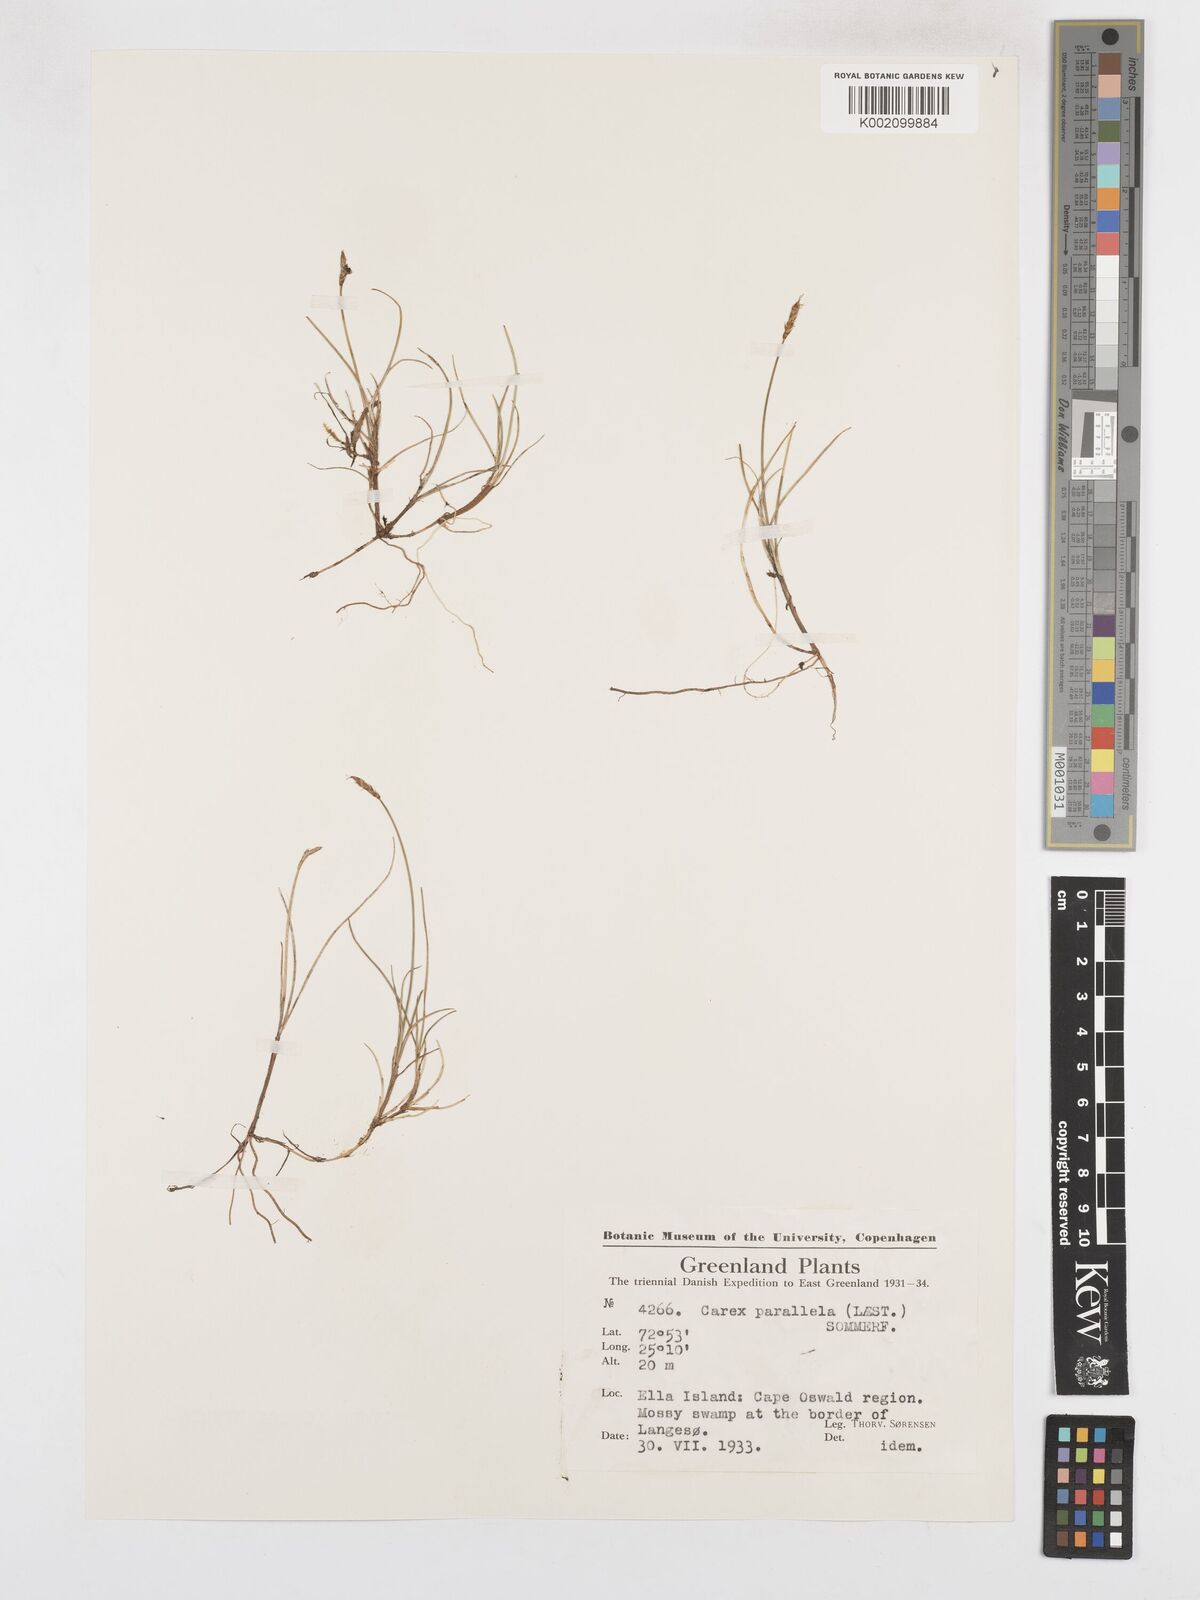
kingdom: Plantae
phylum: Tracheophyta
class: Liliopsida
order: Poales
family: Cyperaceae
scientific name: Cyperaceae
